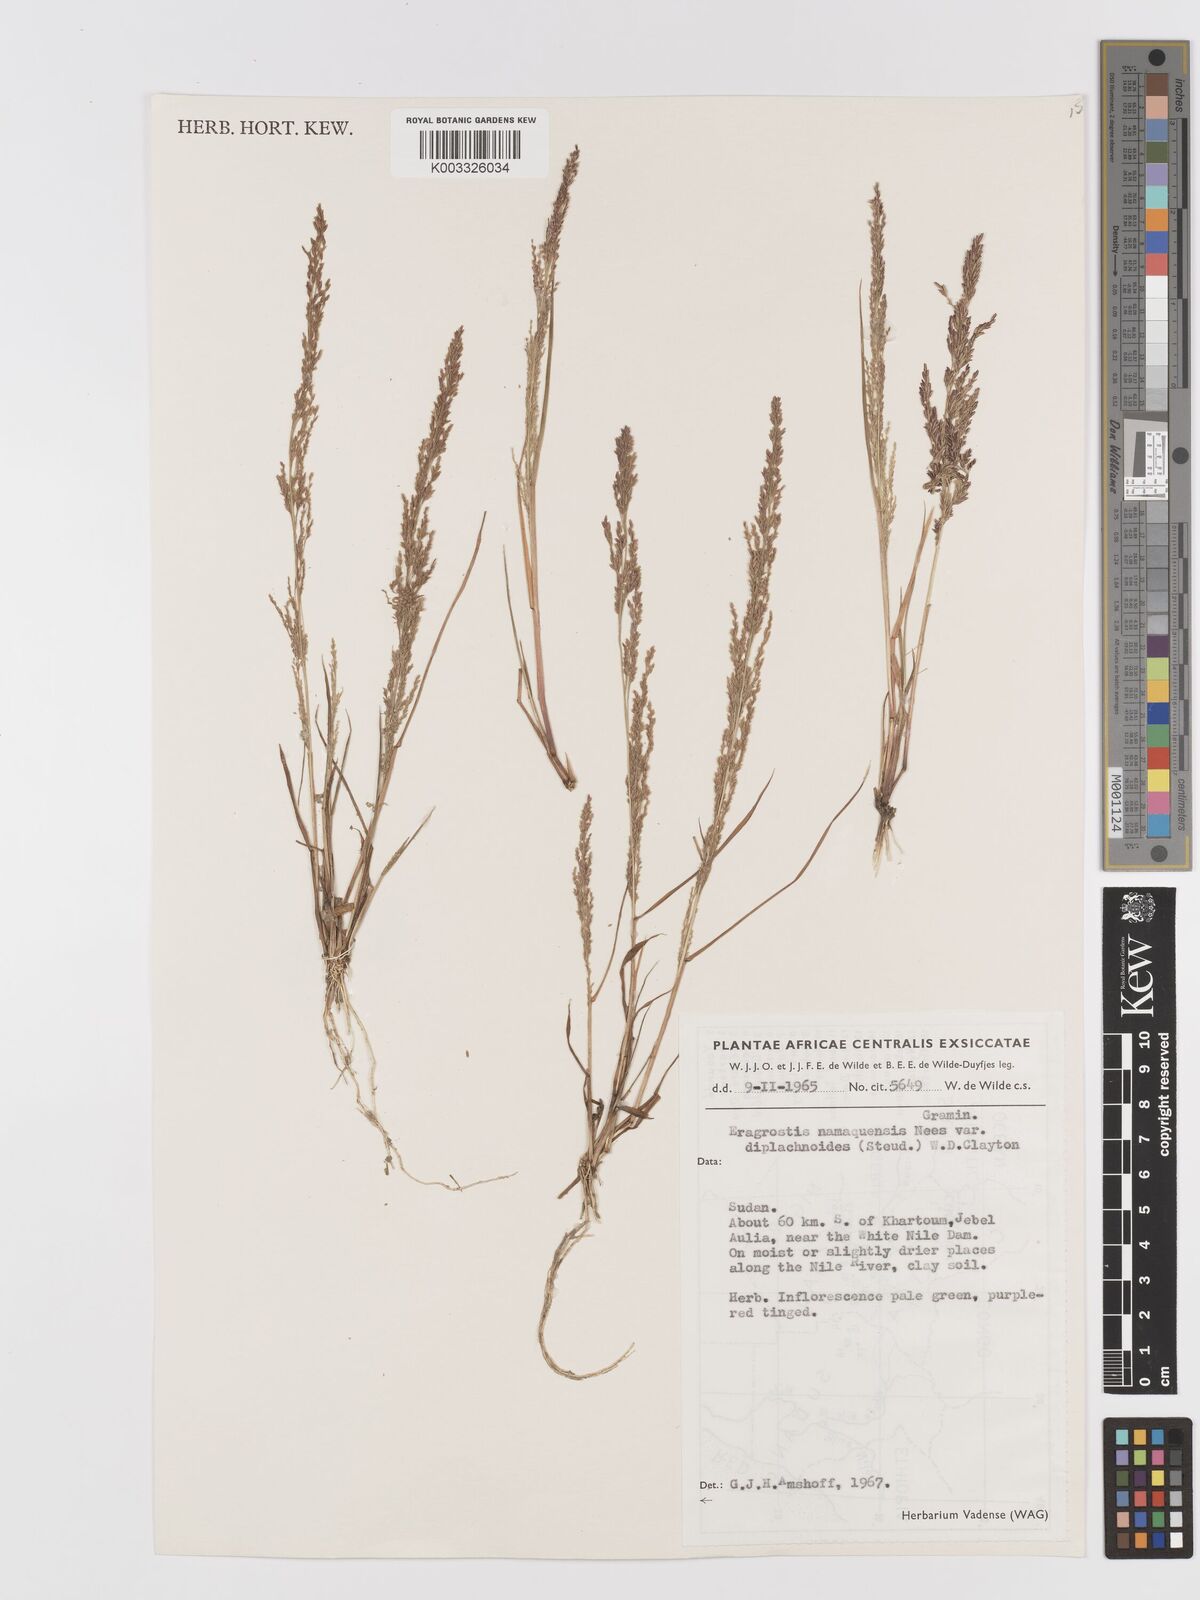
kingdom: Plantae
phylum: Tracheophyta
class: Liliopsida
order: Poales
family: Poaceae
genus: Eragrostis
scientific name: Eragrostis japonica
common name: Pond lovegrass
